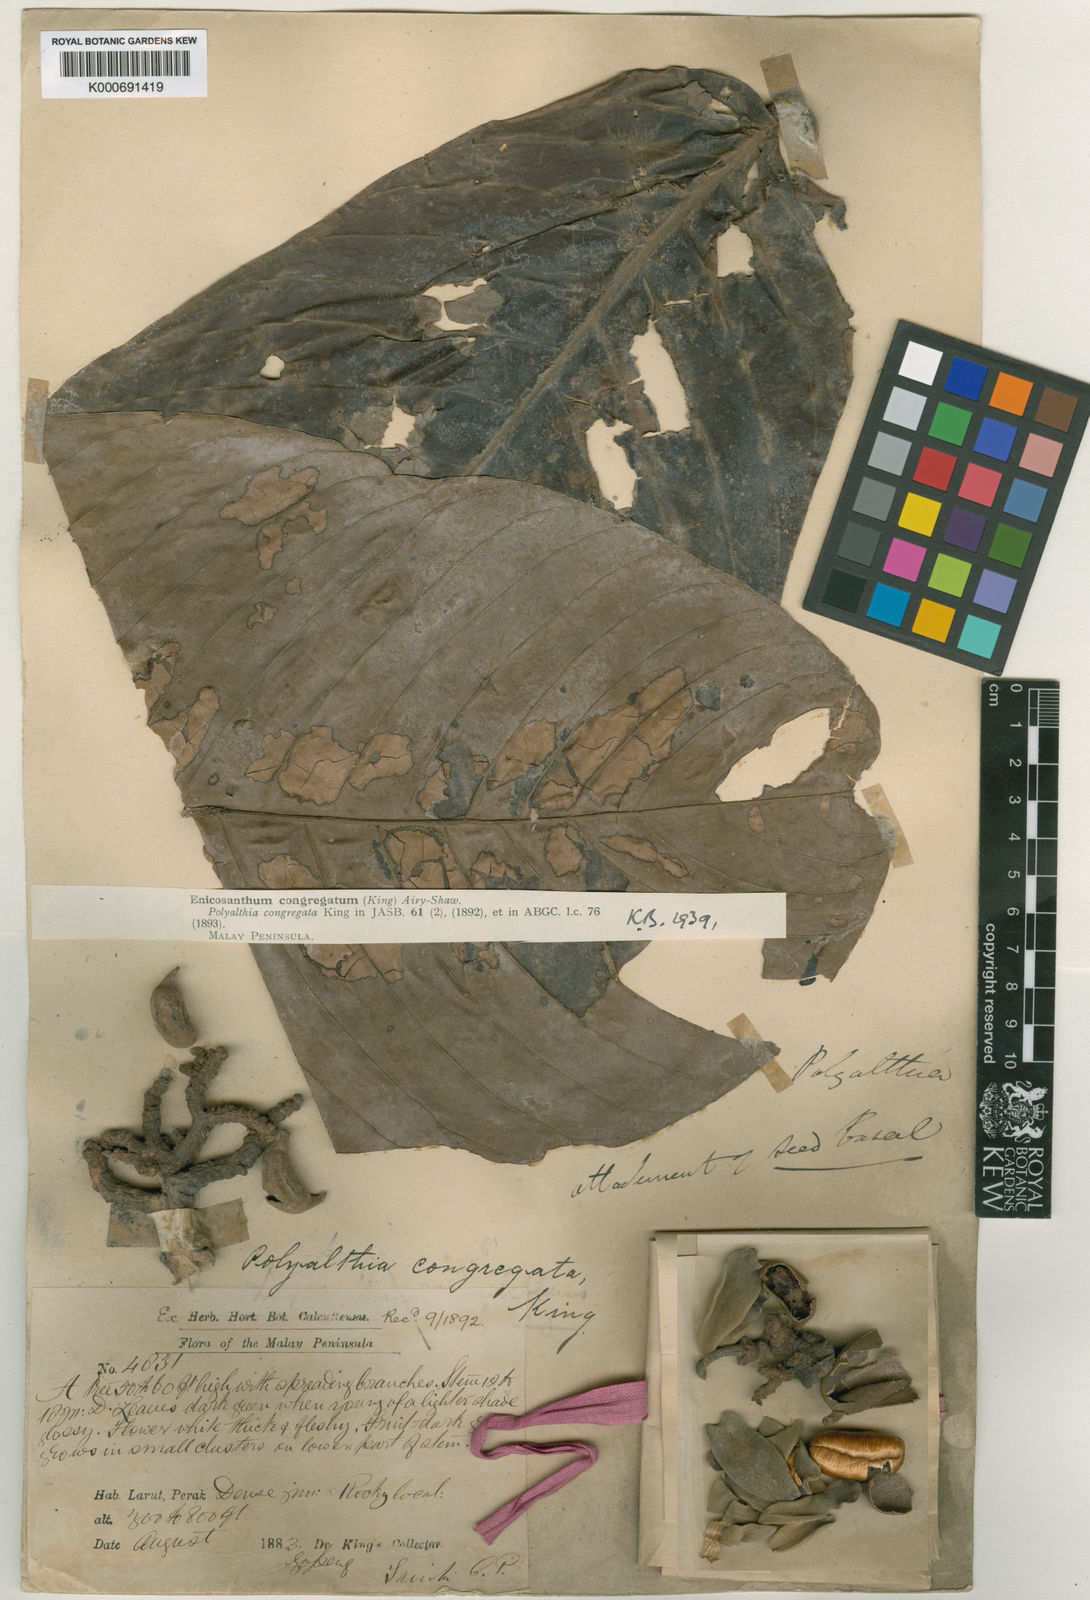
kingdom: Plantae
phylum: Tracheophyta
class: Magnoliopsida
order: Magnoliales
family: Annonaceae
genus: Enicosanthum
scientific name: Enicosanthum congregatum
